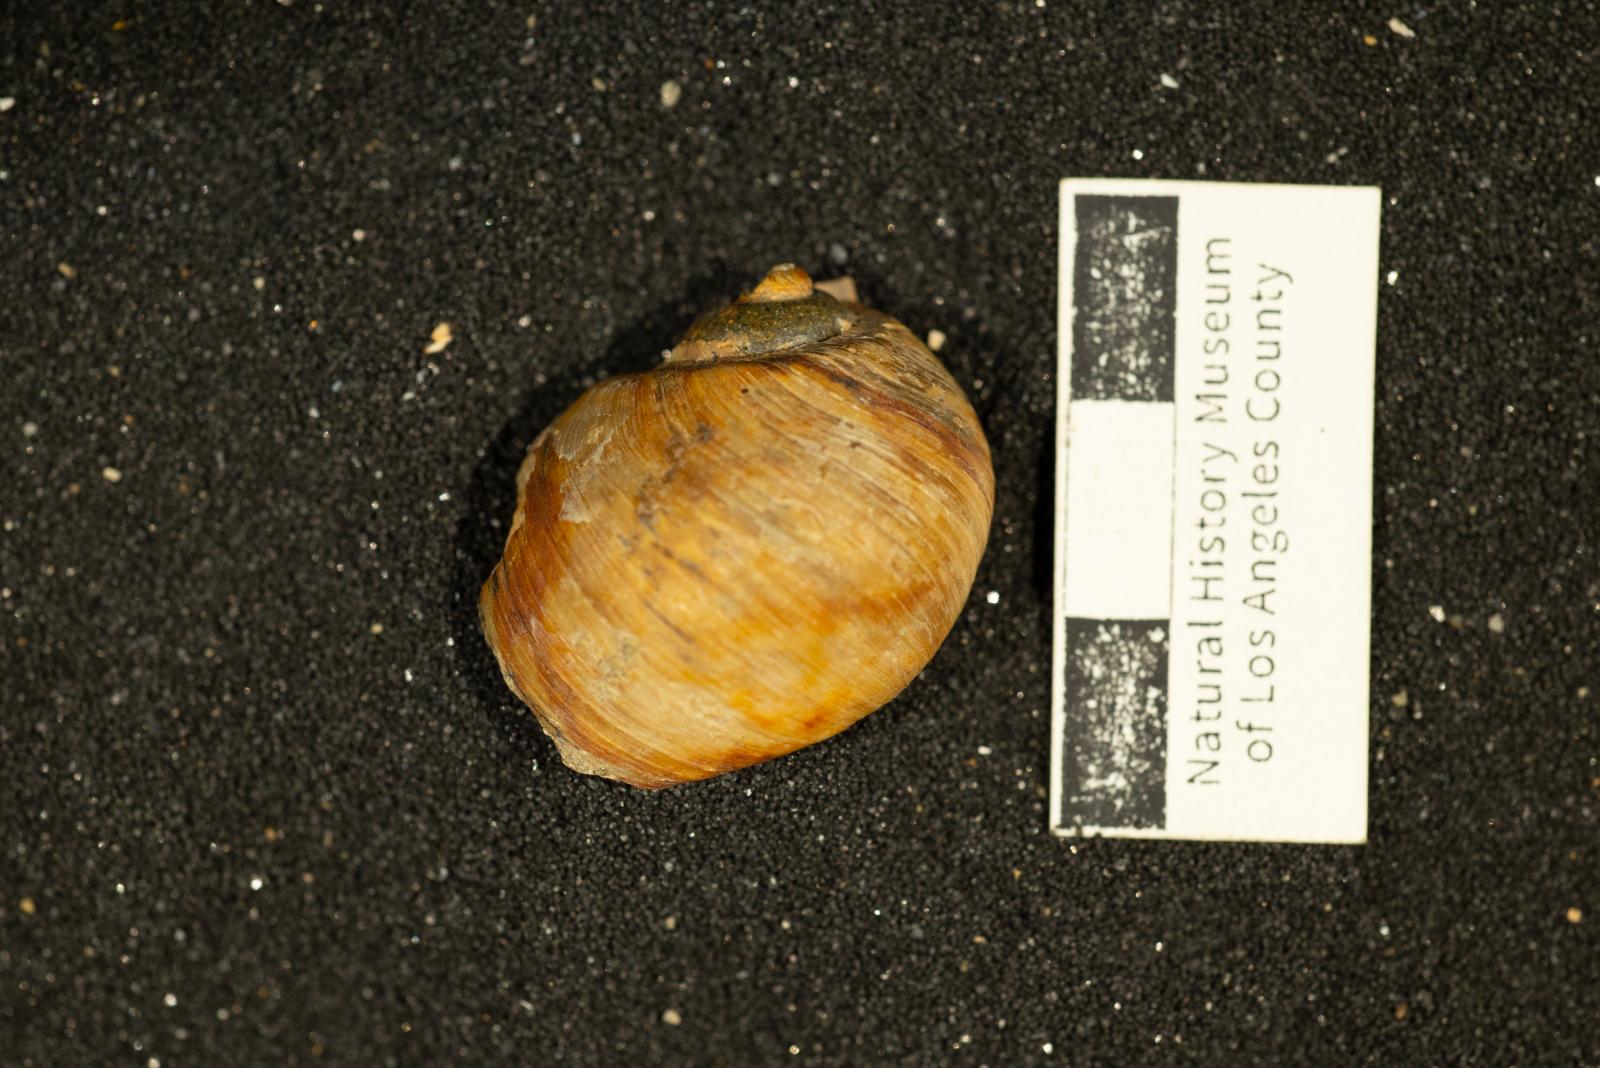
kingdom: Animalia
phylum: Mollusca
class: Gastropoda
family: Gyrodidae
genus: Gyrodes
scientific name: Gyrodes canadensis
